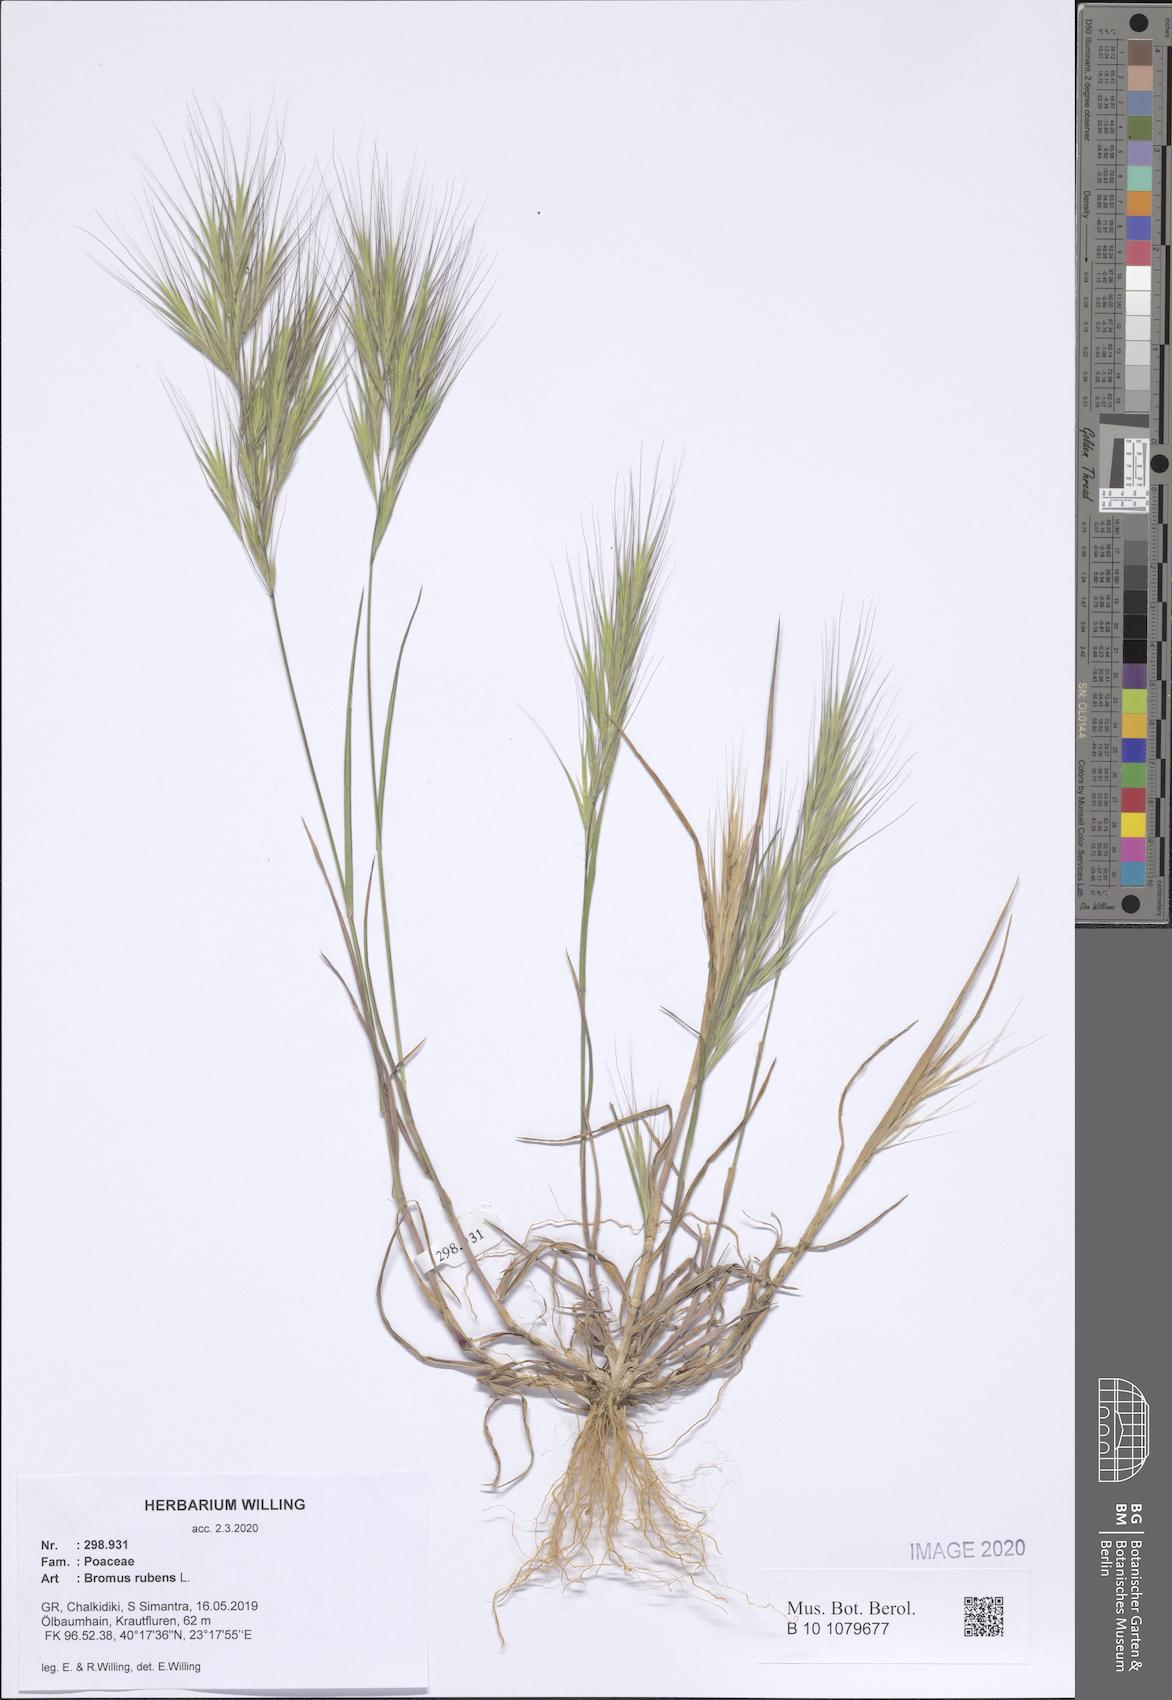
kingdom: Plantae
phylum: Tracheophyta
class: Liliopsida
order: Poales
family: Poaceae
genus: Bromus
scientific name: Bromus rubens
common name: Red brome
